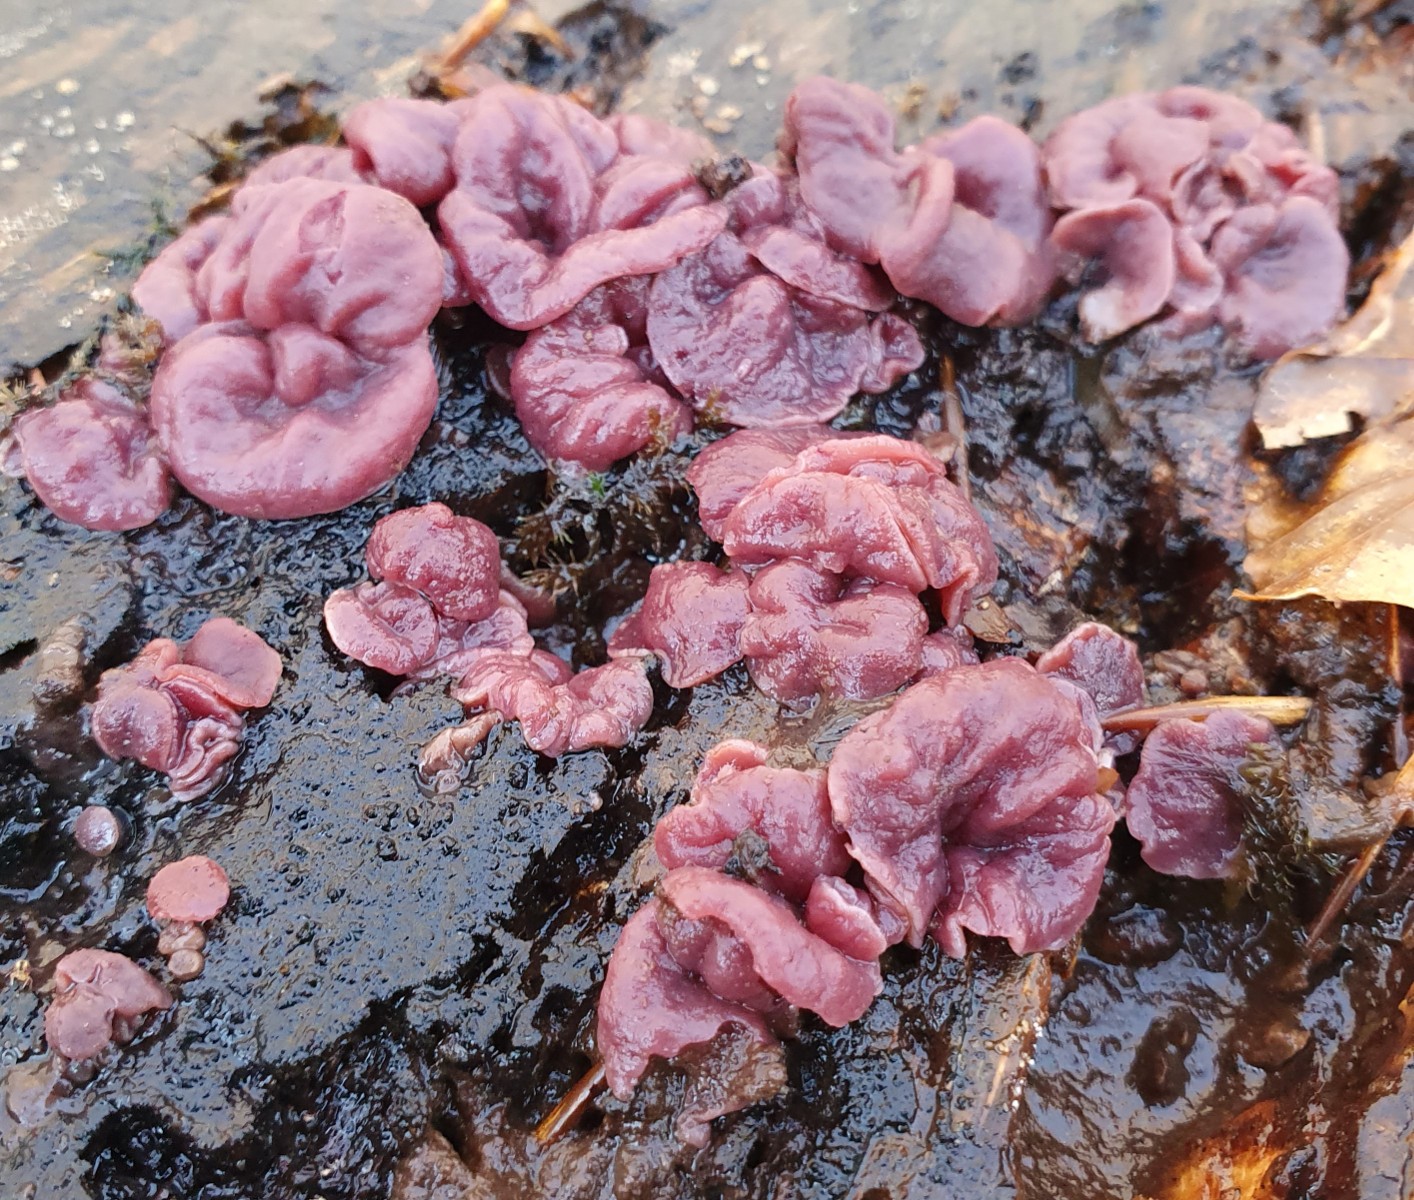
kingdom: Fungi
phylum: Ascomycota
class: Leotiomycetes
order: Helotiales
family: Gelatinodiscaceae
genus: Ascocoryne
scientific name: Ascocoryne cylichnium
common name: stor sejskive
